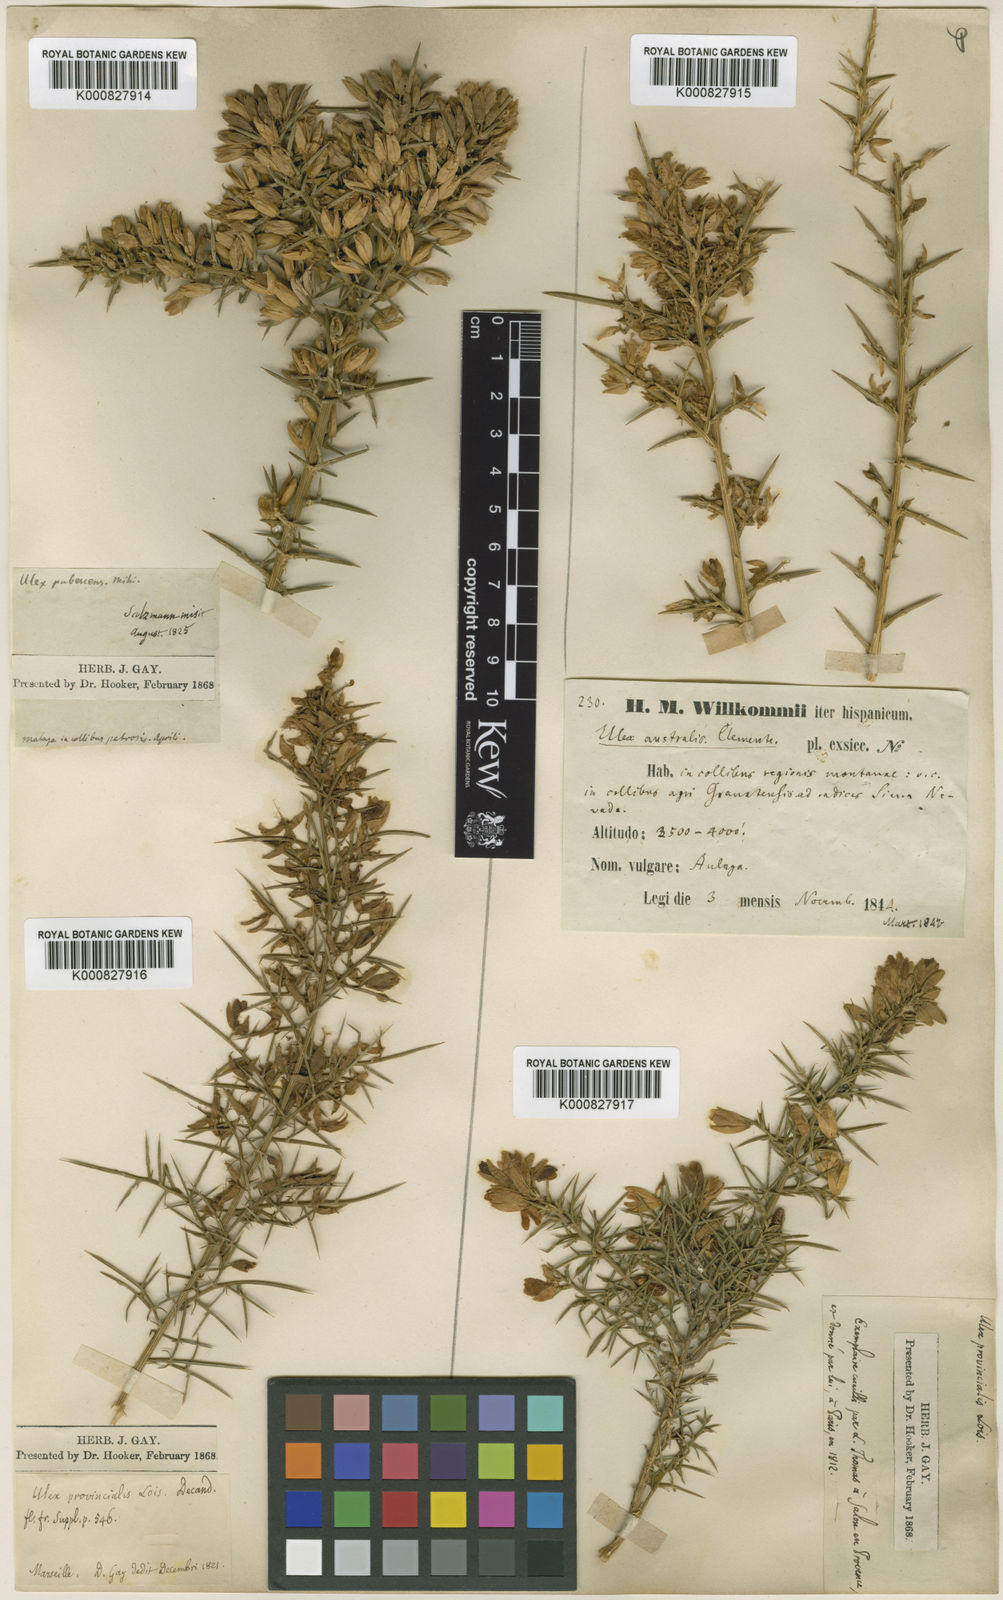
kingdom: Plantae
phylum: Tracheophyta
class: Magnoliopsida
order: Fabales
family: Fabaceae
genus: Ulex
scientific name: Ulex parviflorus
